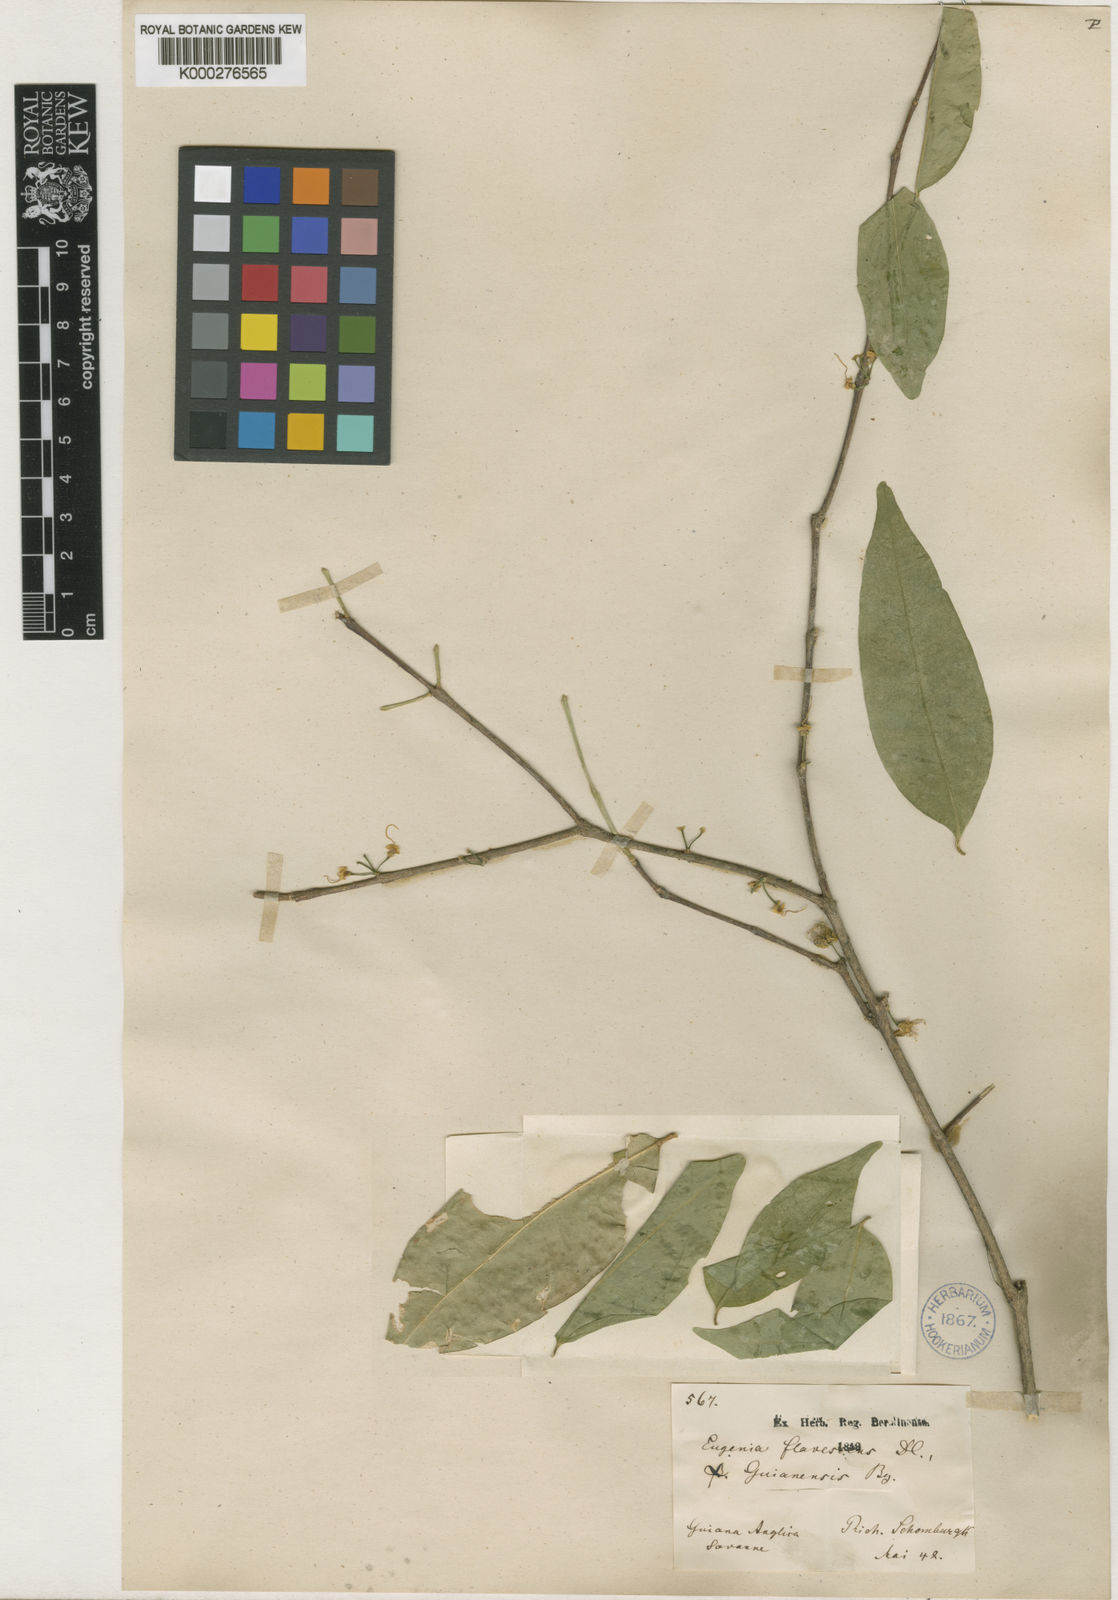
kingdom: Plantae
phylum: Tracheophyta
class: Magnoliopsida
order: Myrtales
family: Myrtaceae
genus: Eugenia
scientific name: Eugenia flavescens
